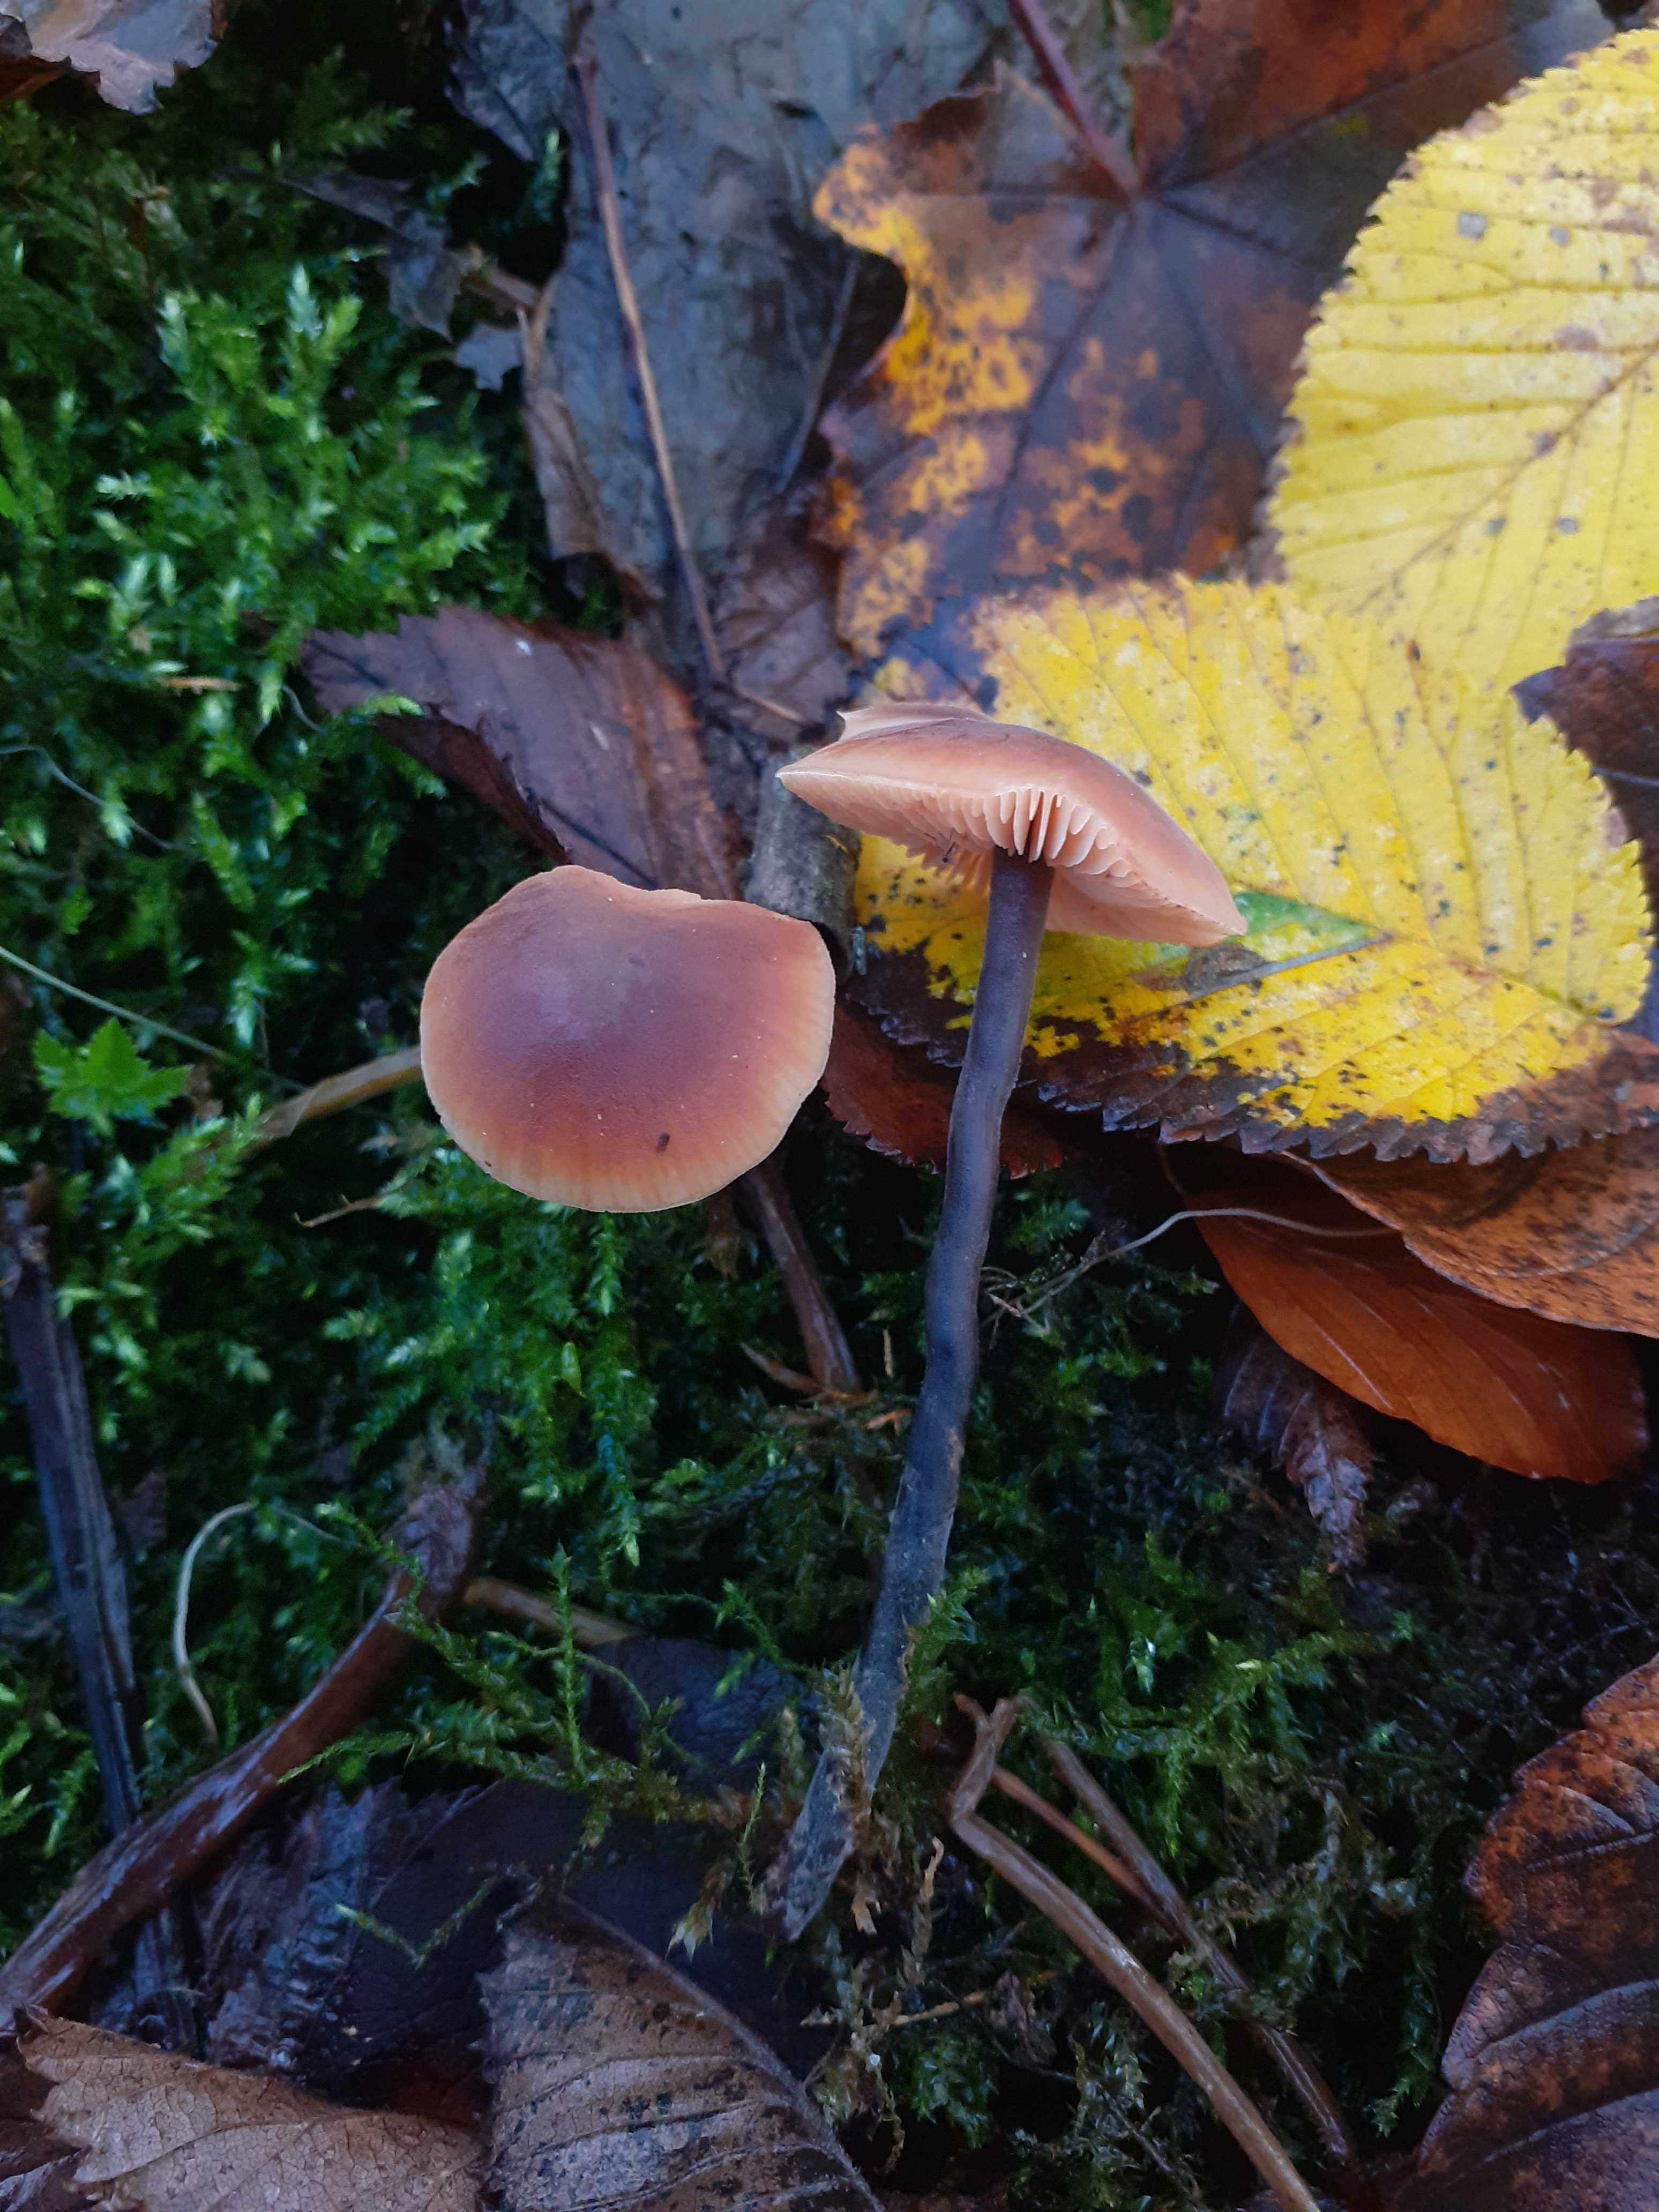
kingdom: Fungi
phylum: Basidiomycota
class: Agaricomycetes
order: Agaricales
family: Macrocystidiaceae
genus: Macrocystidia
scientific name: Macrocystidia cucumis
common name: agurkehat
